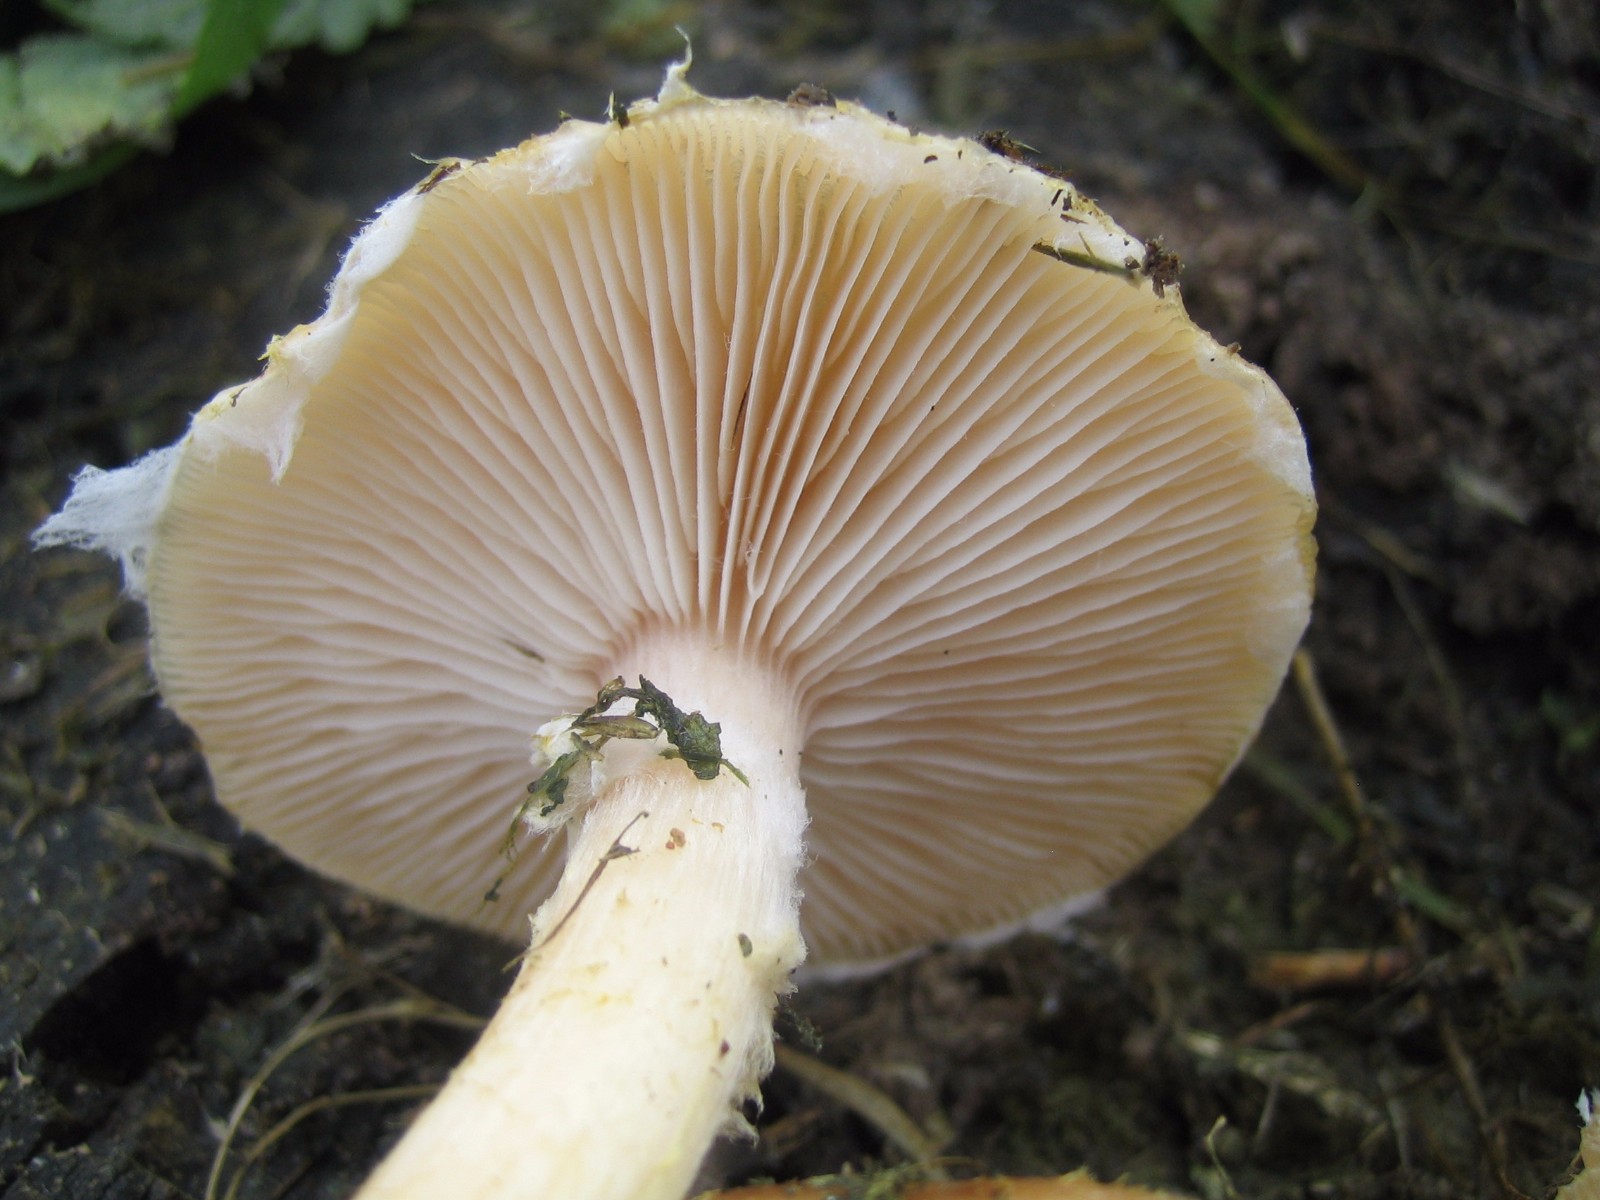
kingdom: Fungi
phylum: Basidiomycota
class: Agaricomycetes
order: Agaricales
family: Physalacriaceae
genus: Armillaria
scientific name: Armillaria lutea
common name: køllestokket honningsvamp
